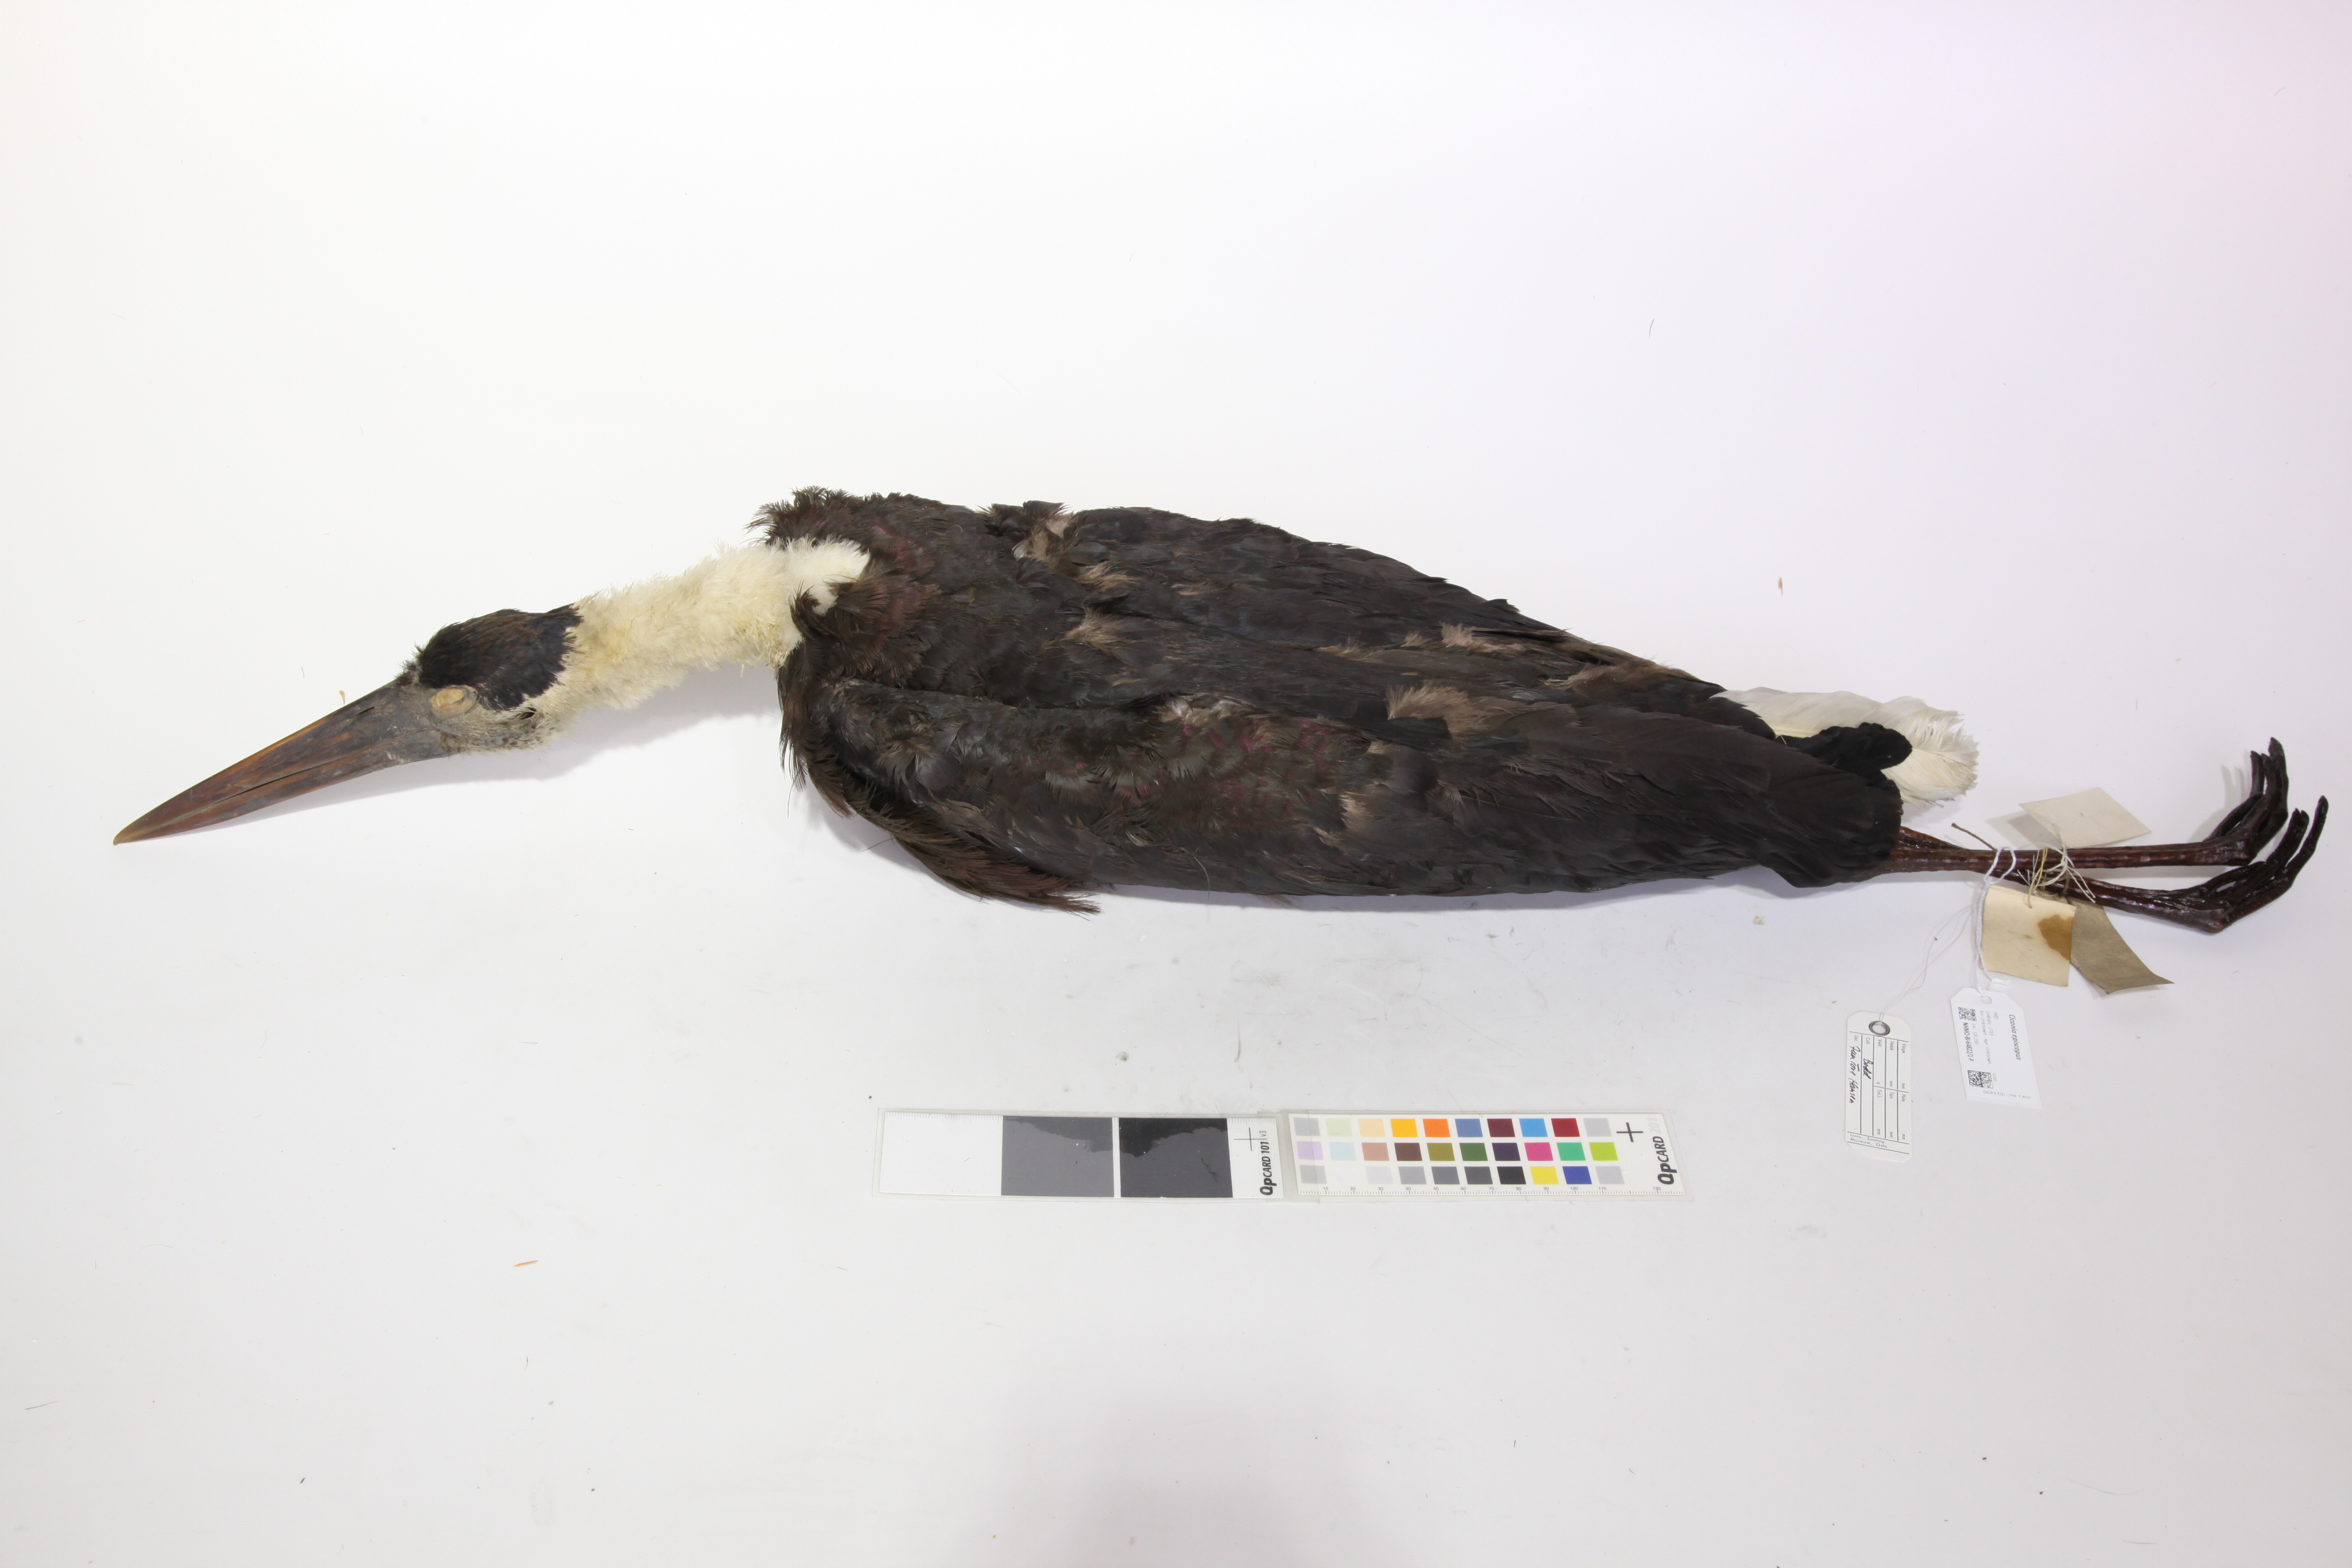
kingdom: Animalia
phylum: Chordata
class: Aves
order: Ciconiiformes
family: Ciconiidae
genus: Ciconia
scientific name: Ciconia episcopus
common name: Woolly-necked stork
